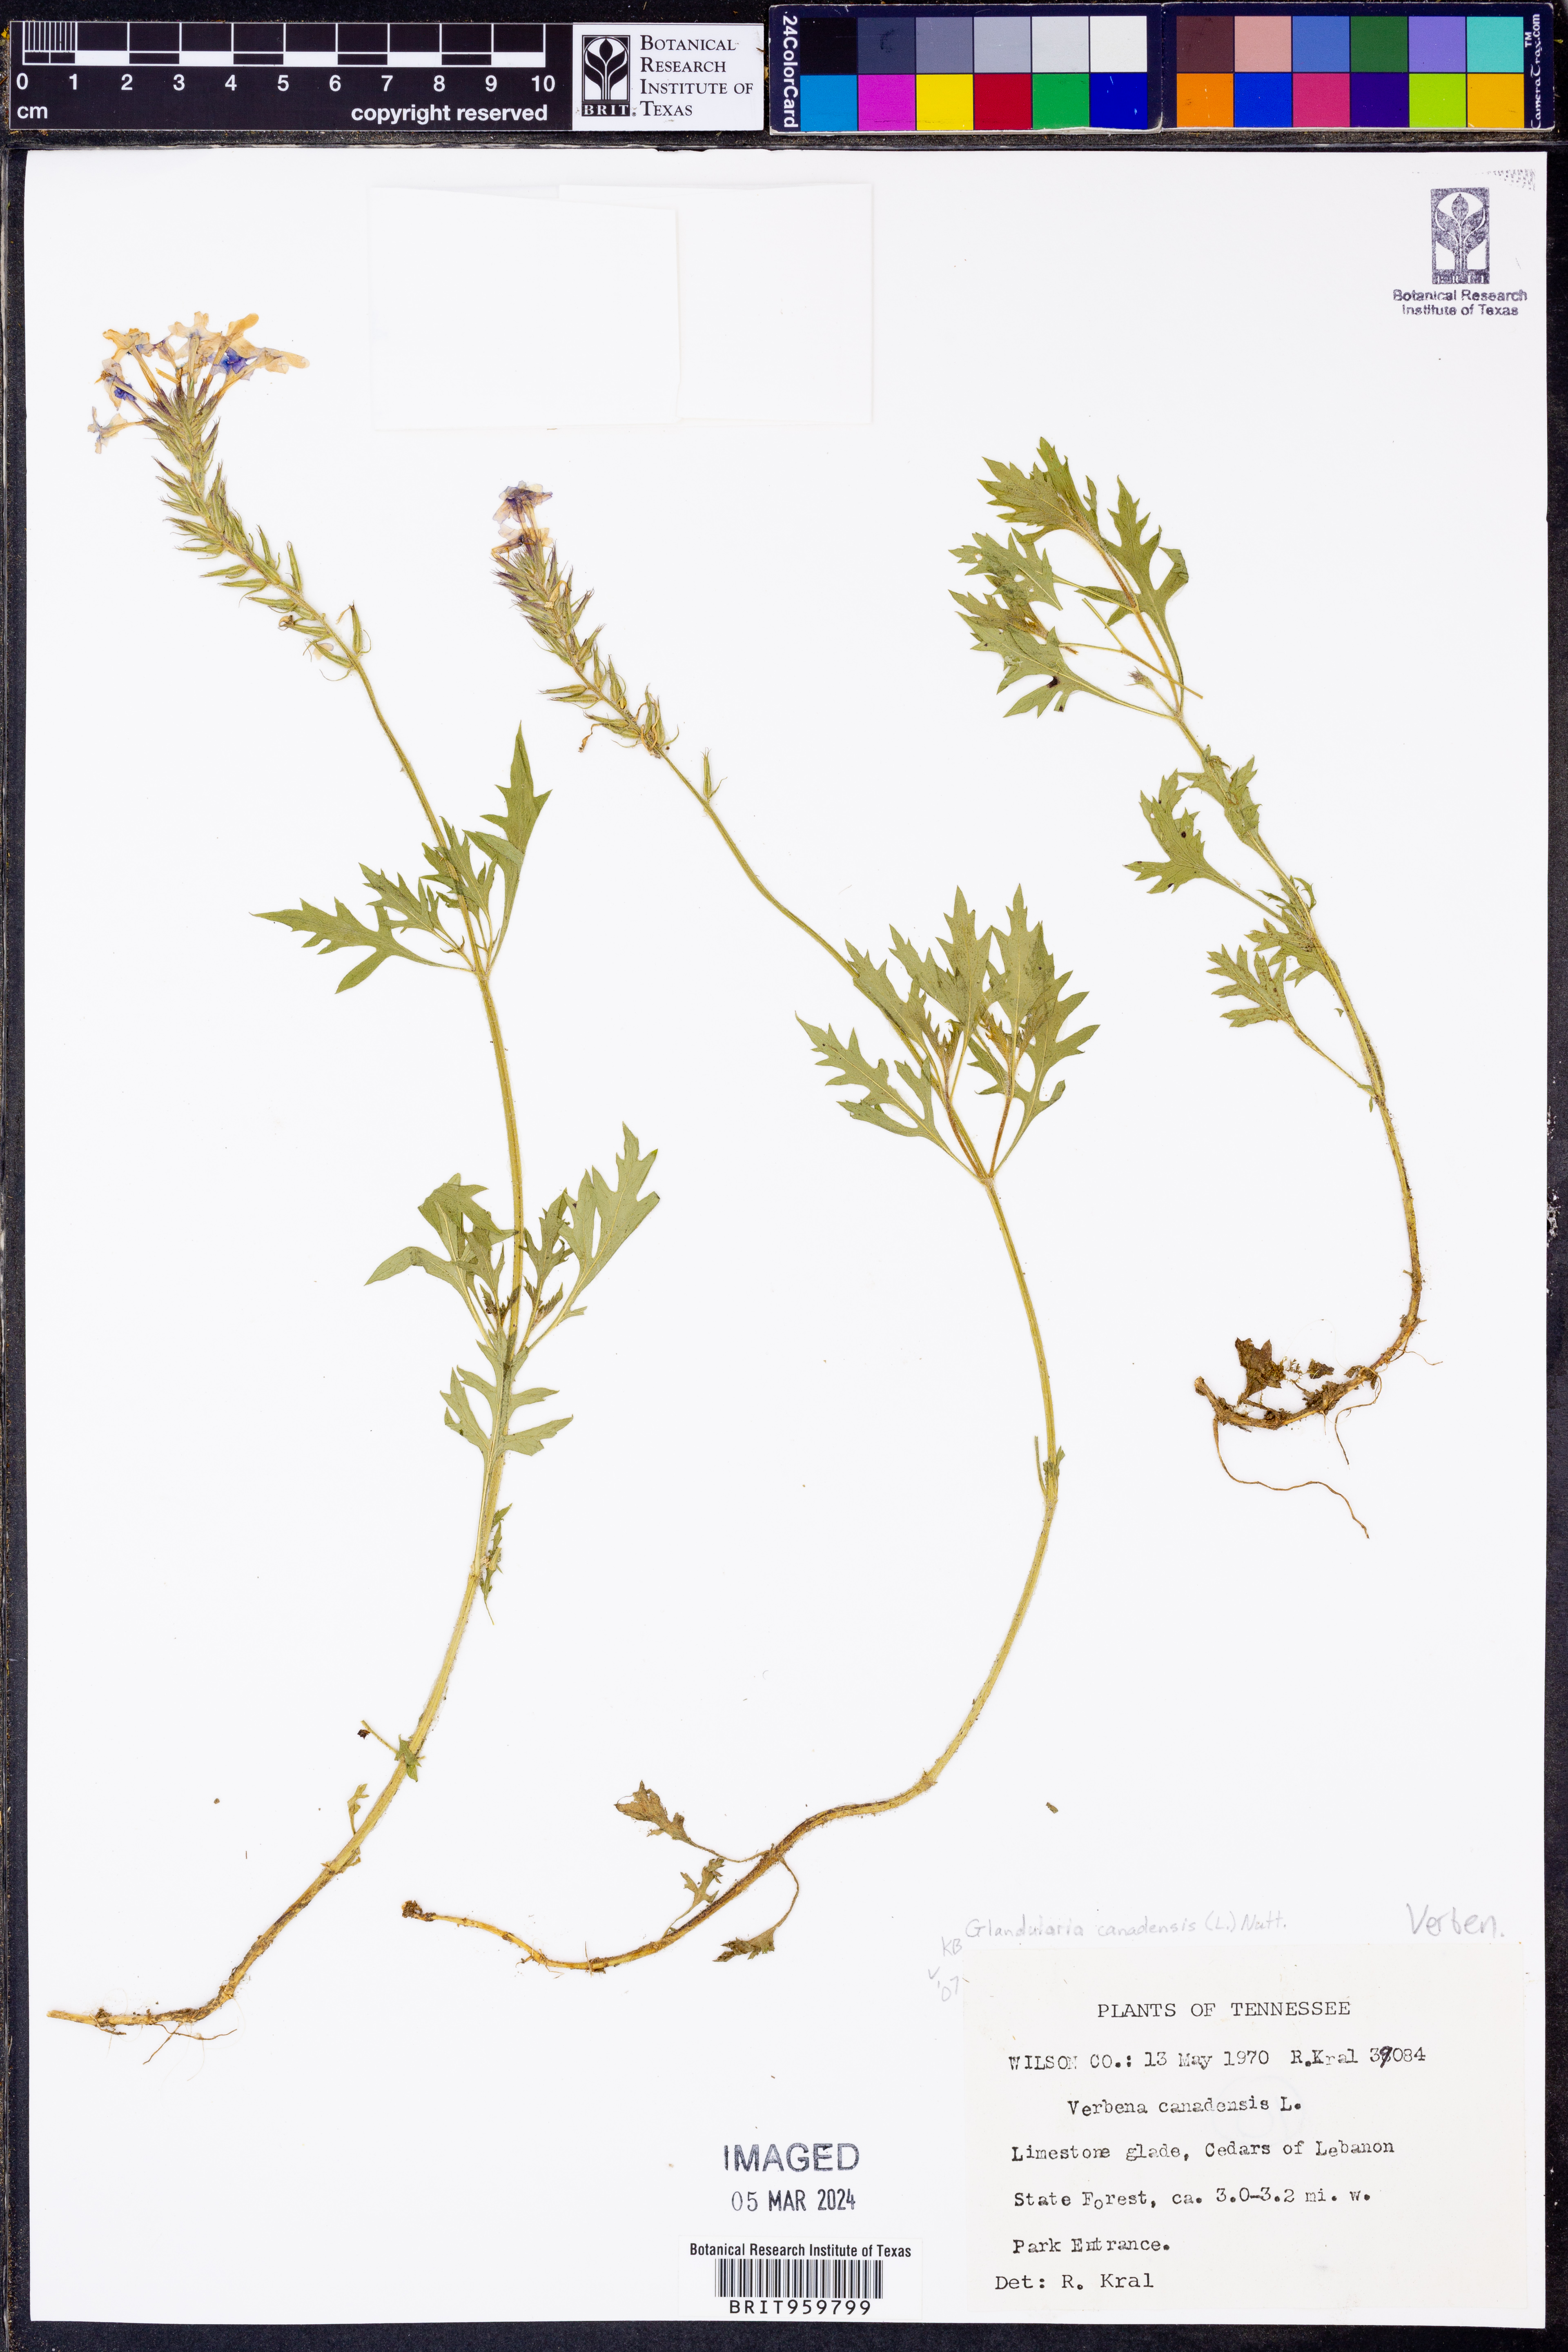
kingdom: Plantae
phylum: Tracheophyta
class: Magnoliopsida
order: Lamiales
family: Verbenaceae
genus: Verbena
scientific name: Verbena canadensis
